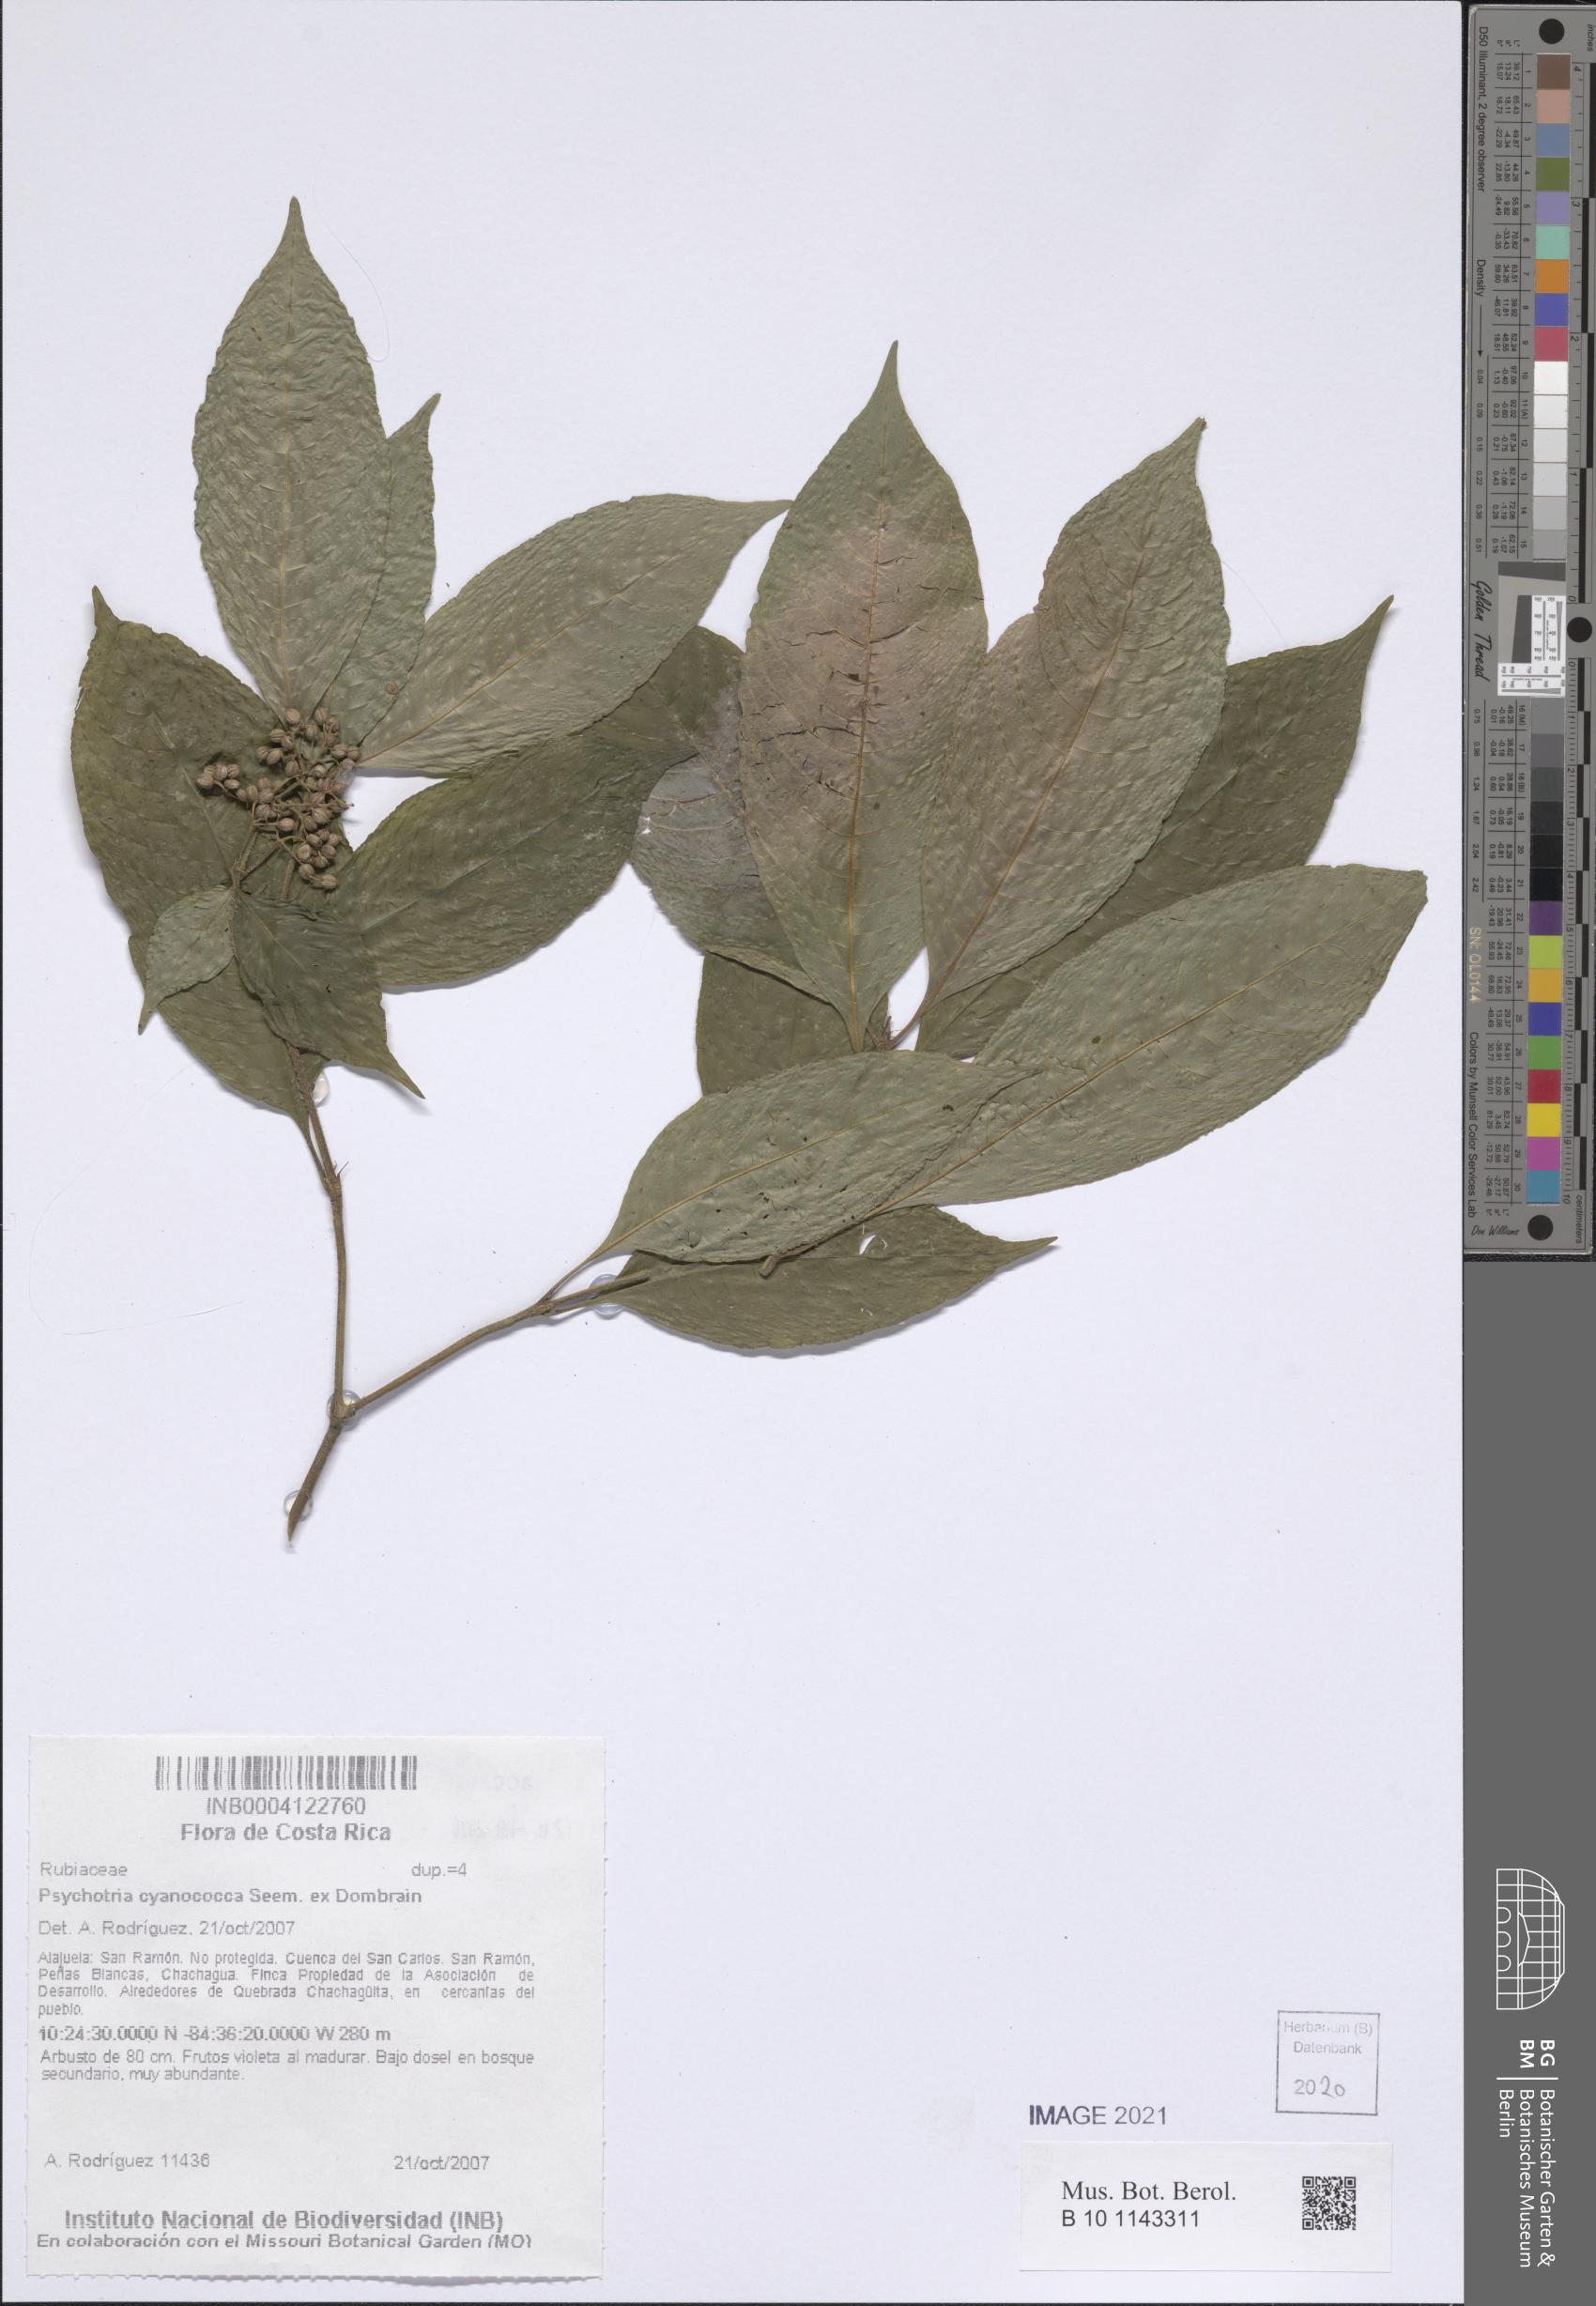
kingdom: Plantae
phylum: Tracheophyta
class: Magnoliopsida
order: Gentianales
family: Rubiaceae
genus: Palicourea
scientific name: Palicourea cyanococca
